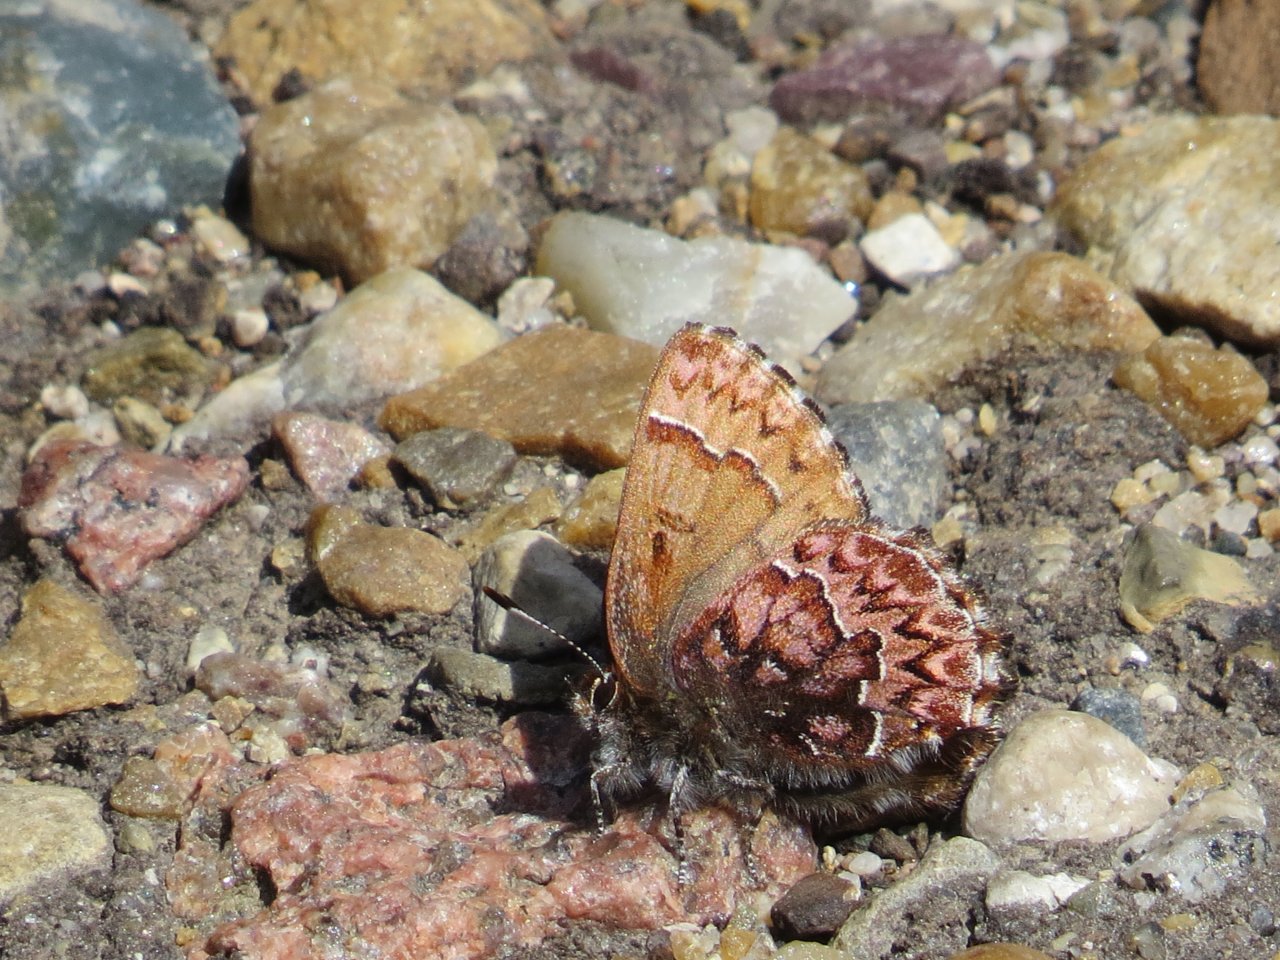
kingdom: Animalia
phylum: Arthropoda
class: Insecta
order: Lepidoptera
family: Lycaenidae
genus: Incisalia
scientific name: Incisalia eryphon
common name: Western Pine Elfin
